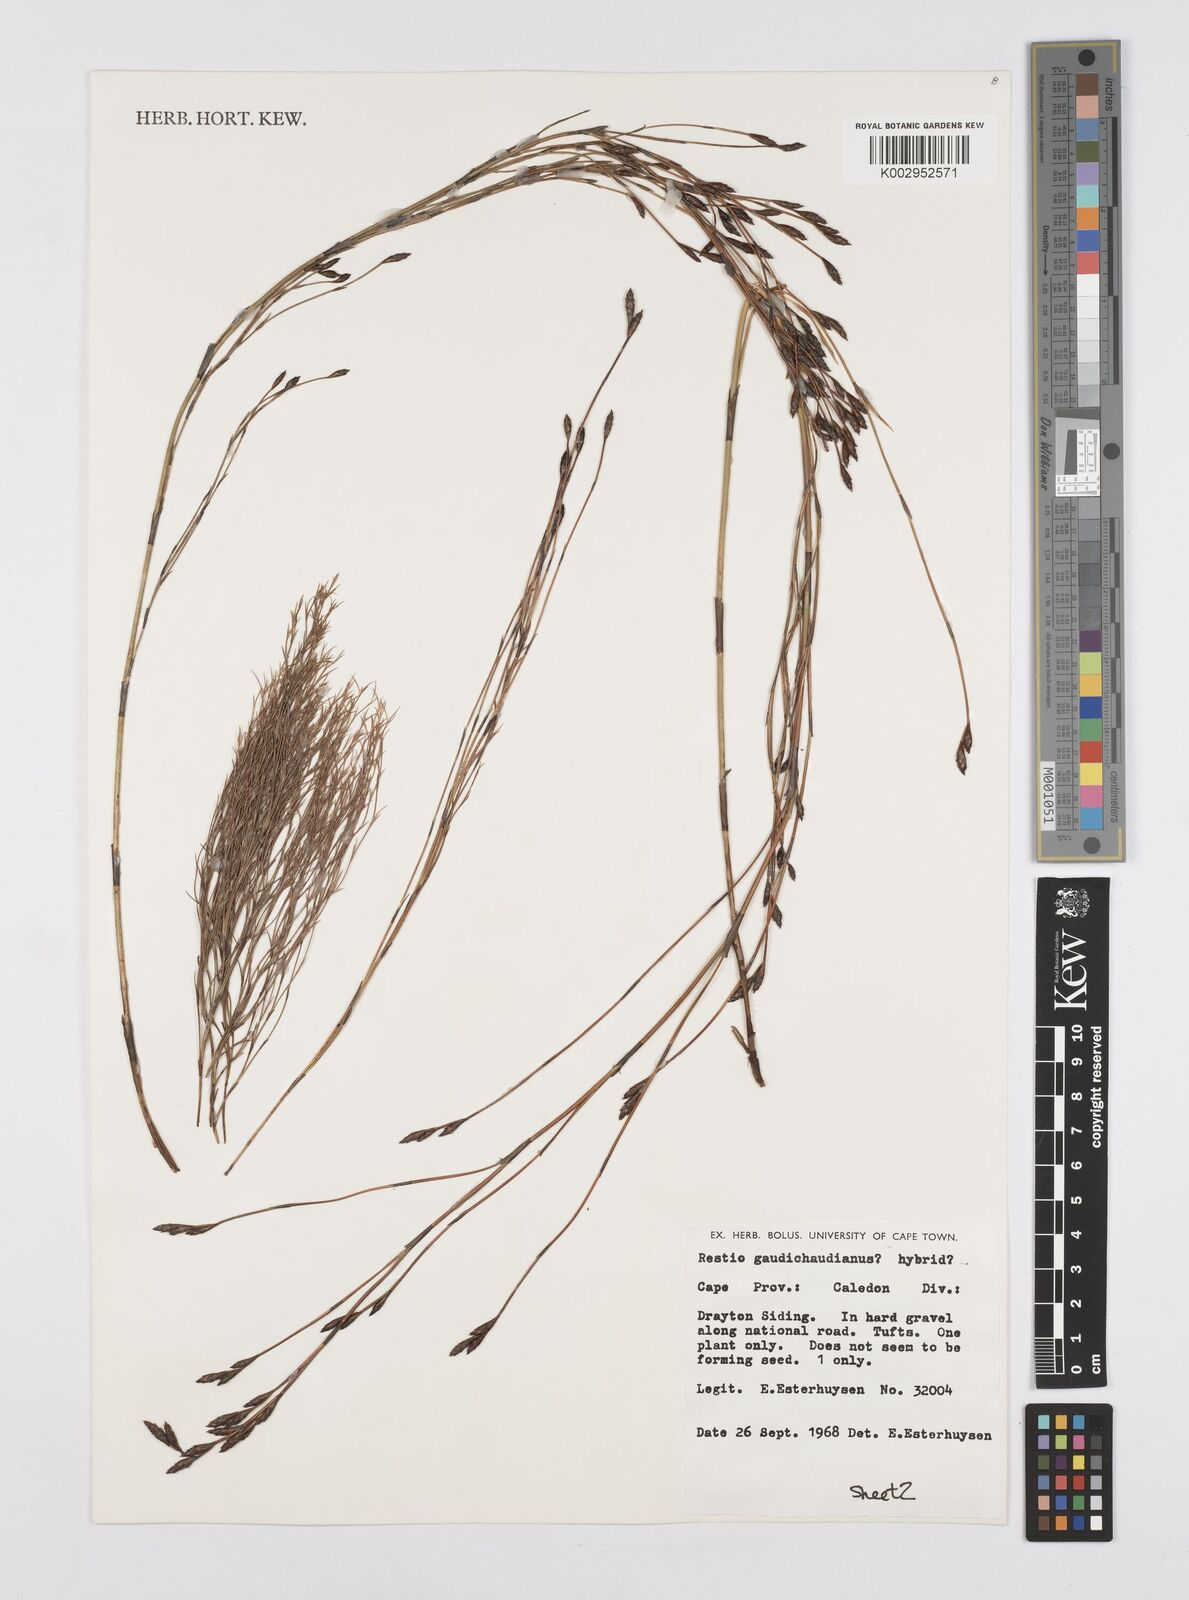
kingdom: Plantae
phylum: Tracheophyta
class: Liliopsida
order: Poales
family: Restionaceae
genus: Restio
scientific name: Restio gaudichaudianus
